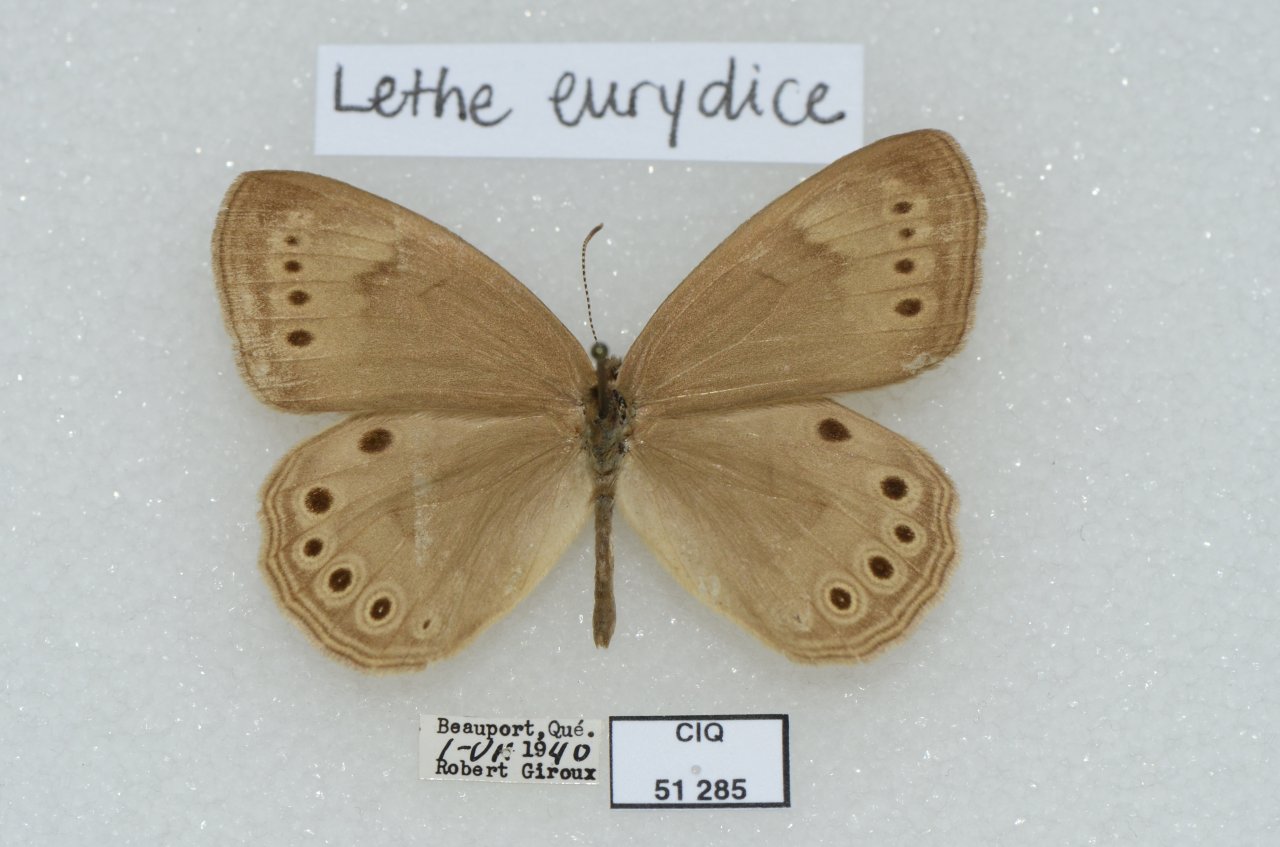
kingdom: Animalia
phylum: Arthropoda
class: Insecta
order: Lepidoptera
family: Nymphalidae
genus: Lethe
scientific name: Lethe eurydice
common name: Eyed Brown
